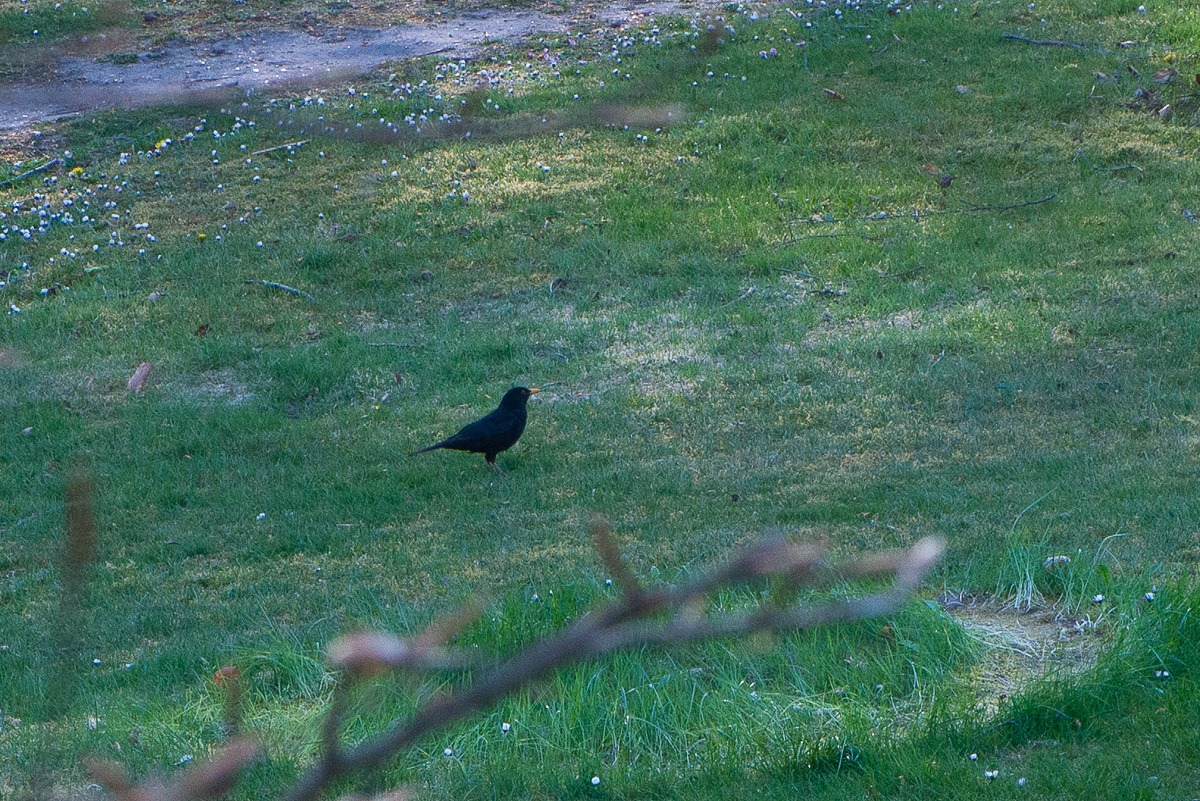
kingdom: Animalia
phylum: Chordata
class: Aves
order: Passeriformes
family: Turdidae
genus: Turdus
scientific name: Turdus merula
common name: Solsort
